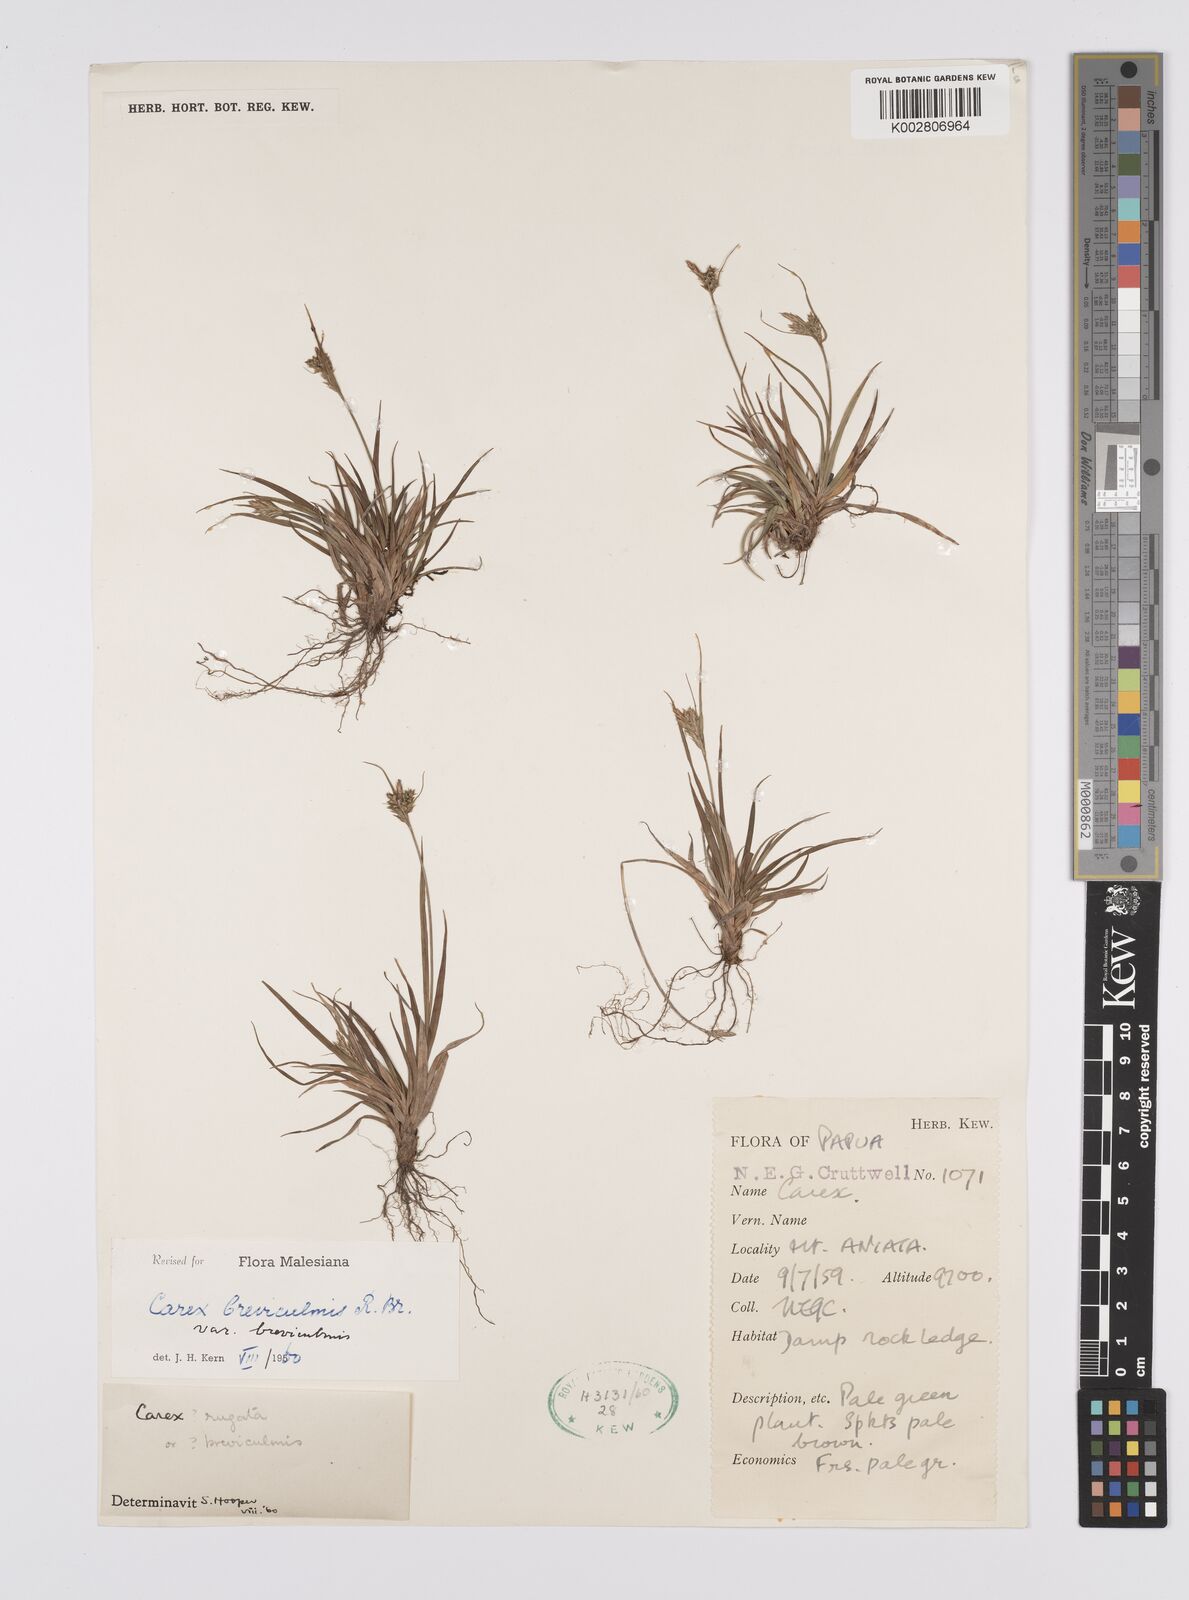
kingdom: Plantae
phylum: Tracheophyta
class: Liliopsida
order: Poales
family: Cyperaceae
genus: Carex
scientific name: Carex breviculmis
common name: Asian shortstem sedge
